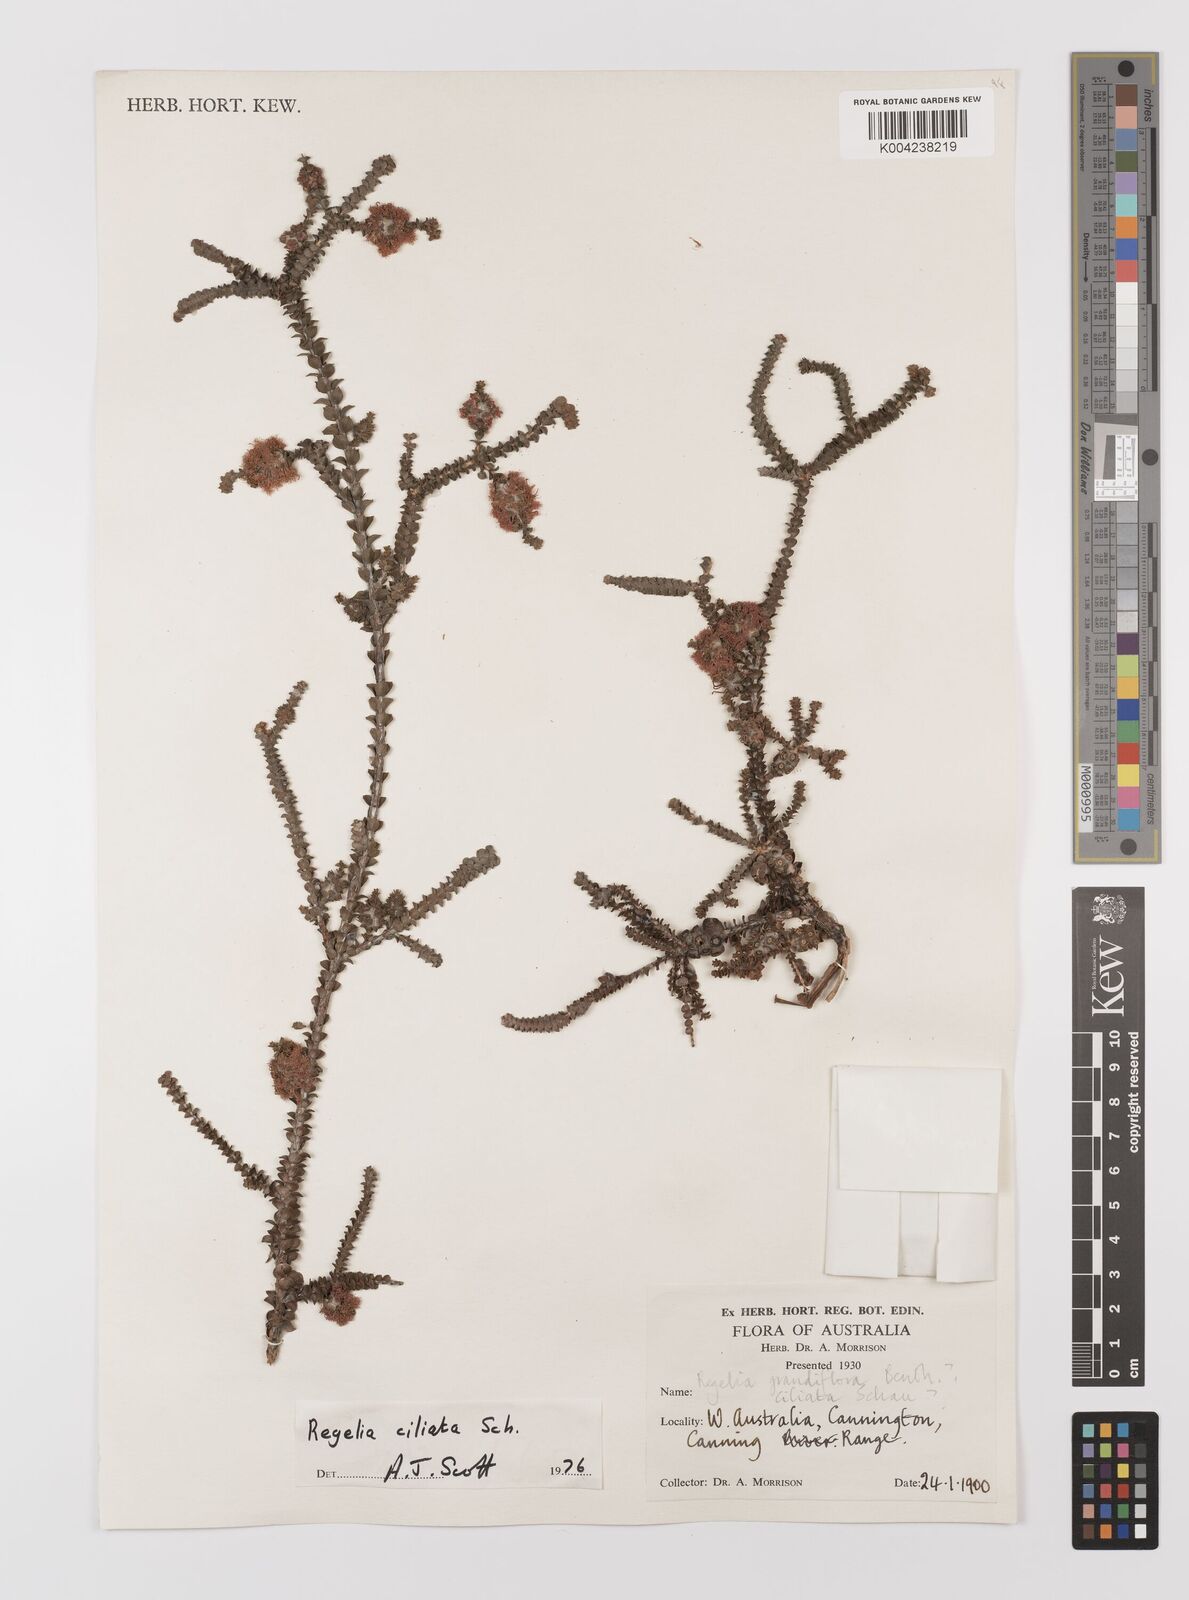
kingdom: Plantae
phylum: Tracheophyta
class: Magnoliopsida
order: Myrtales
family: Myrtaceae
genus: Melaleuca
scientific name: Melaleuca crossota
